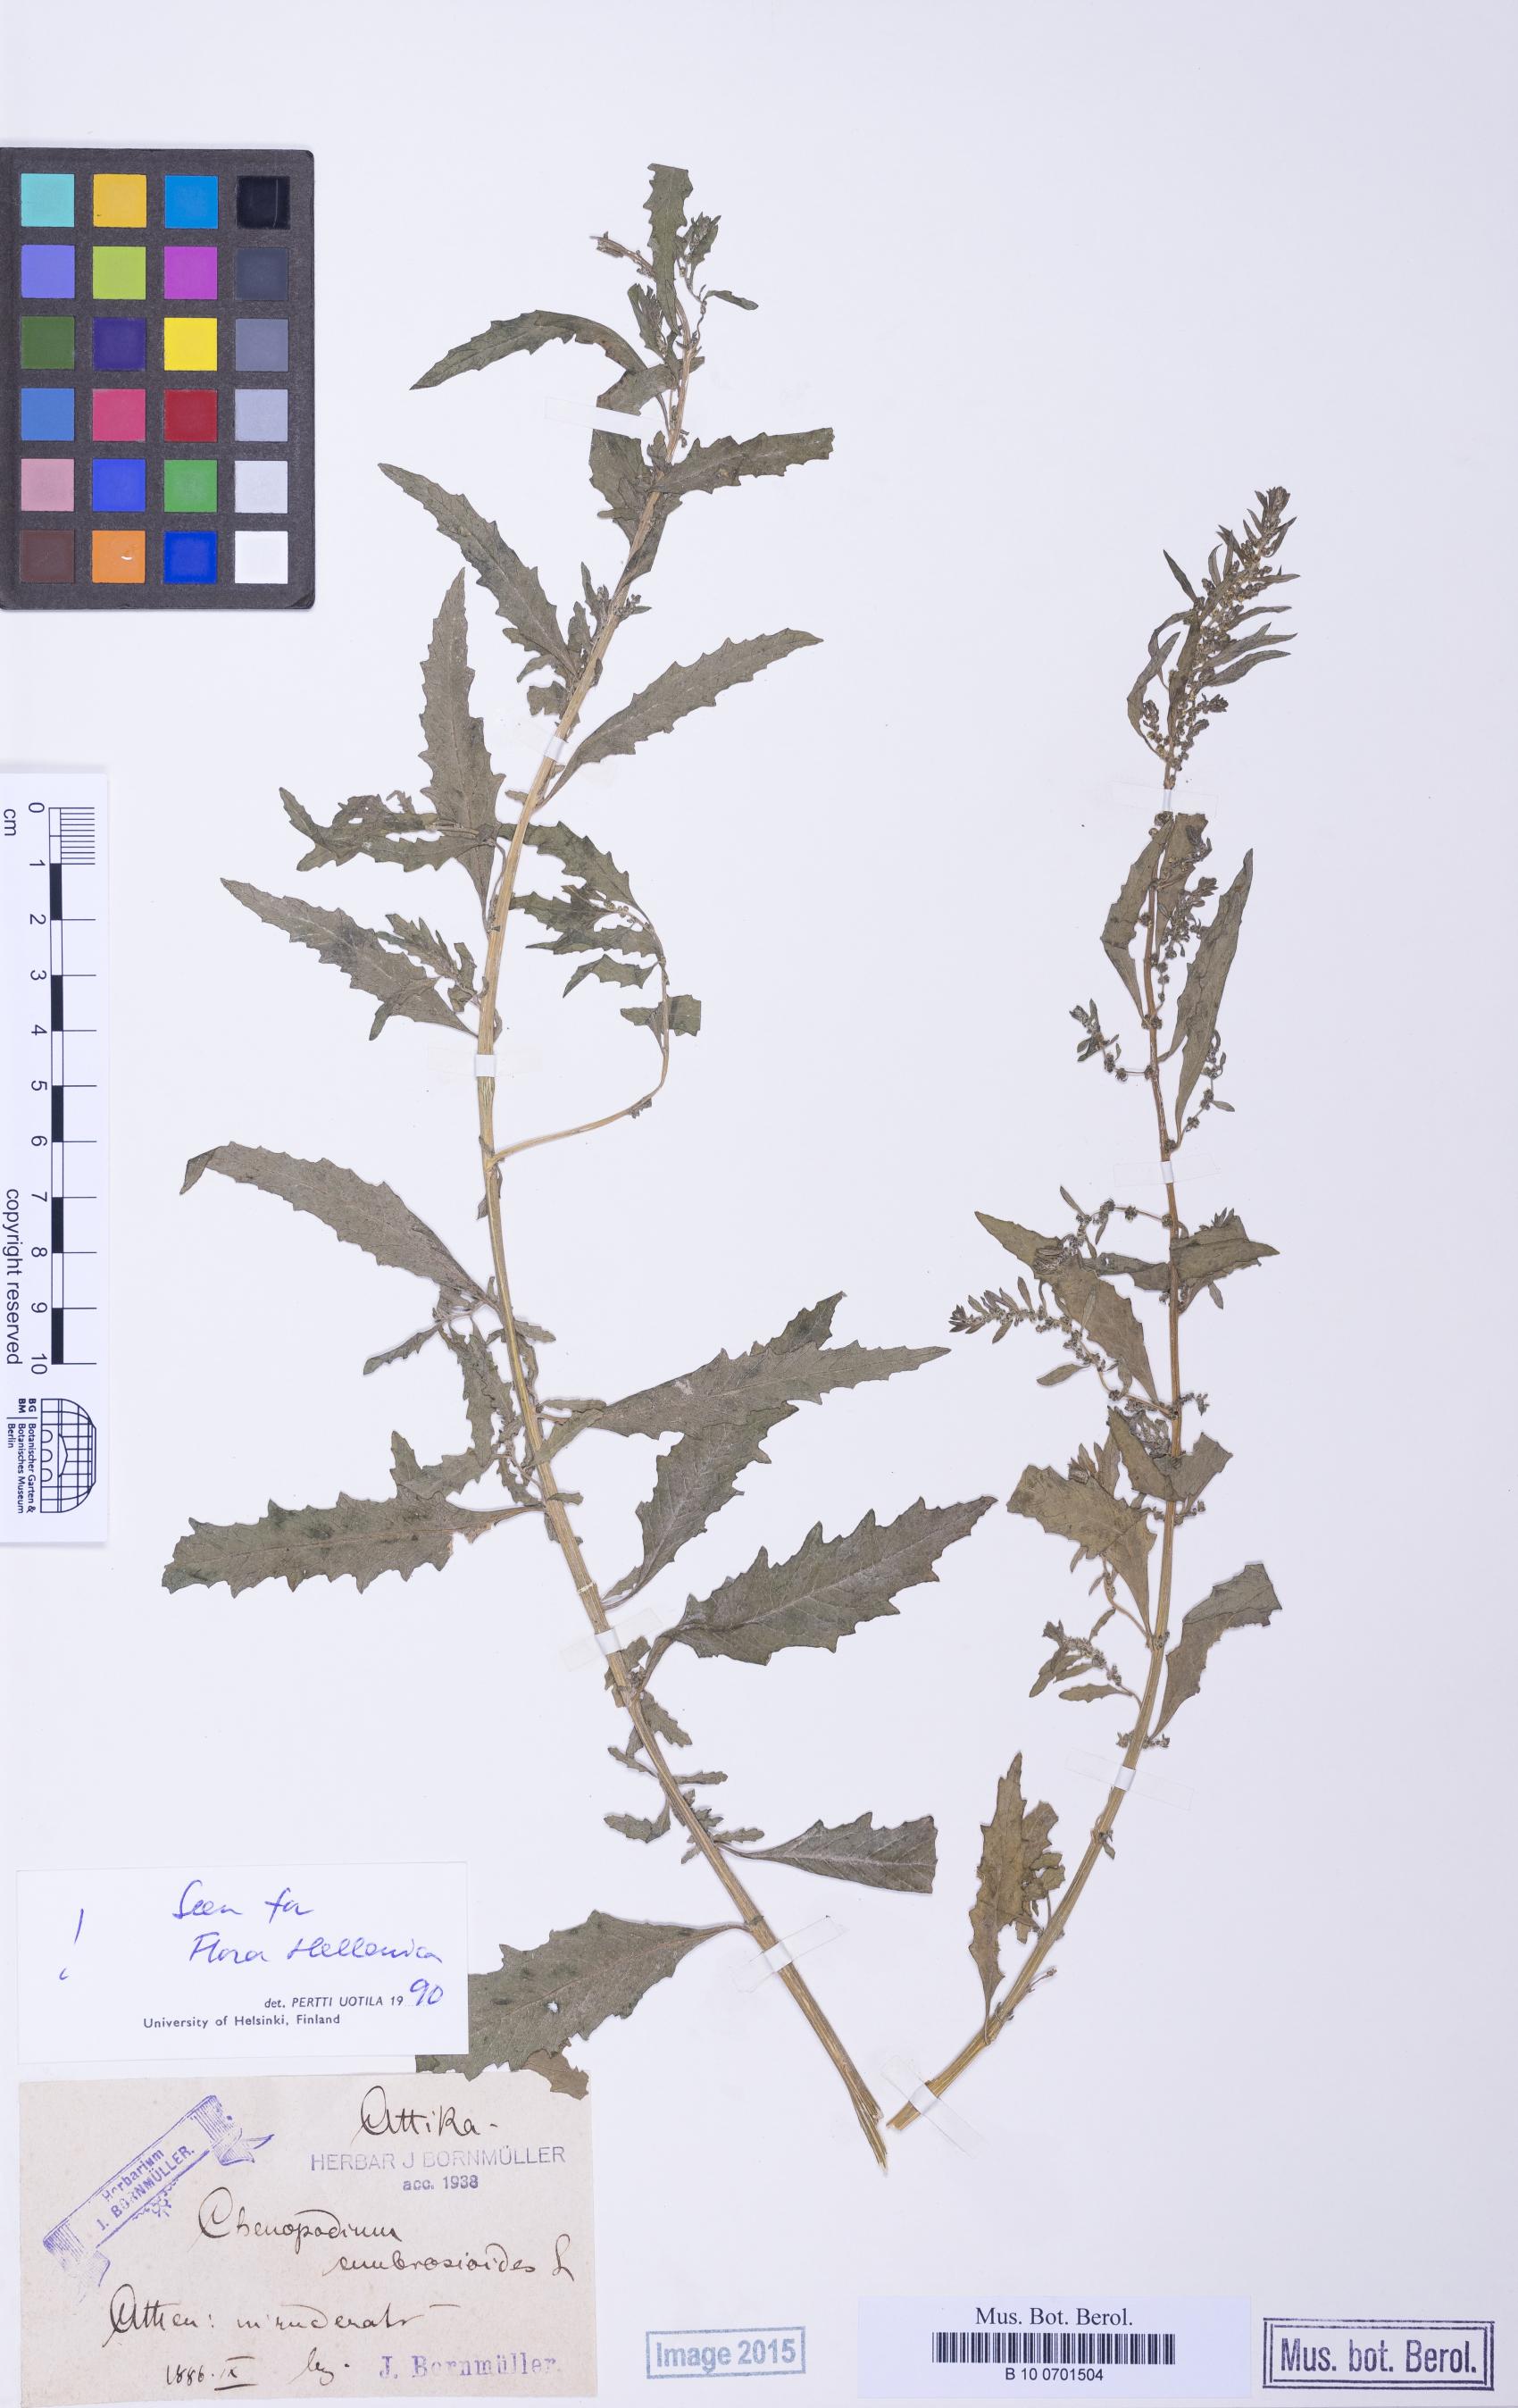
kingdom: Plantae
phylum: Tracheophyta
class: Magnoliopsida
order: Caryophyllales
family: Amaranthaceae
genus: Dysphania
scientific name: Dysphania ambrosioides
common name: Wormseed
